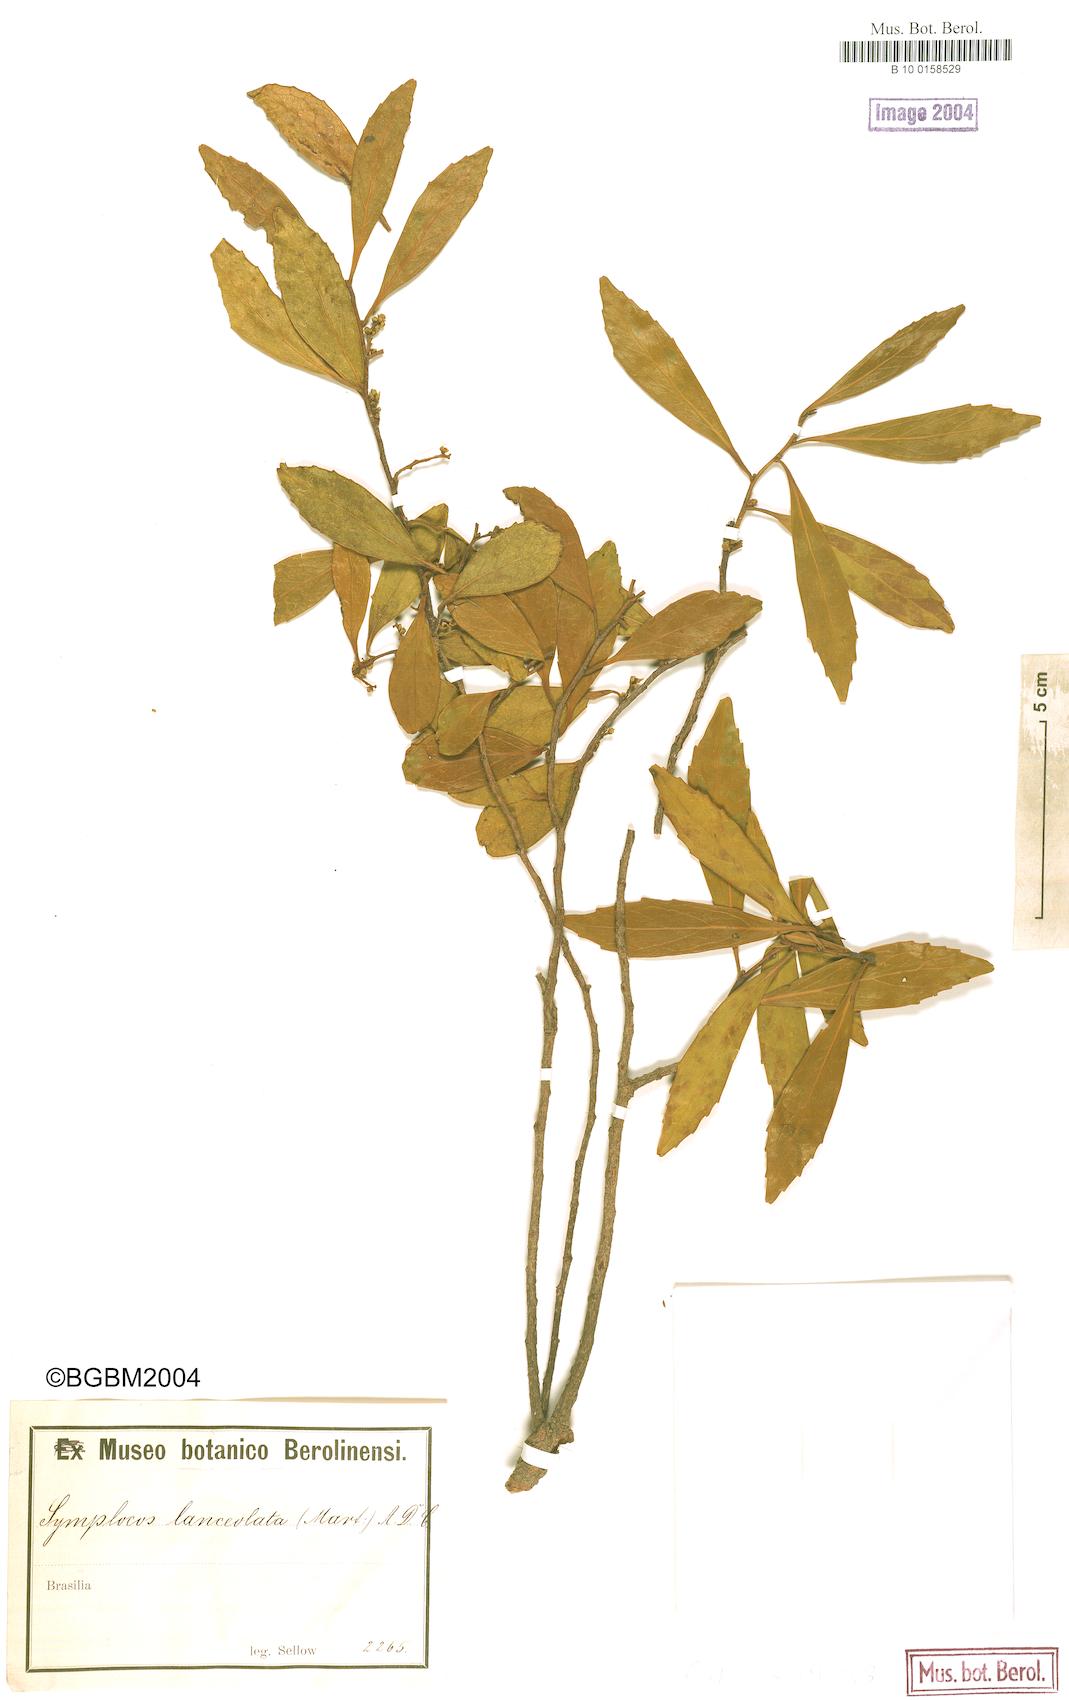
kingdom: Plantae
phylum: Tracheophyta
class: Magnoliopsida
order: Ericales
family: Symplocaceae
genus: Symplocos
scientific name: Symplocos oblongifolia
